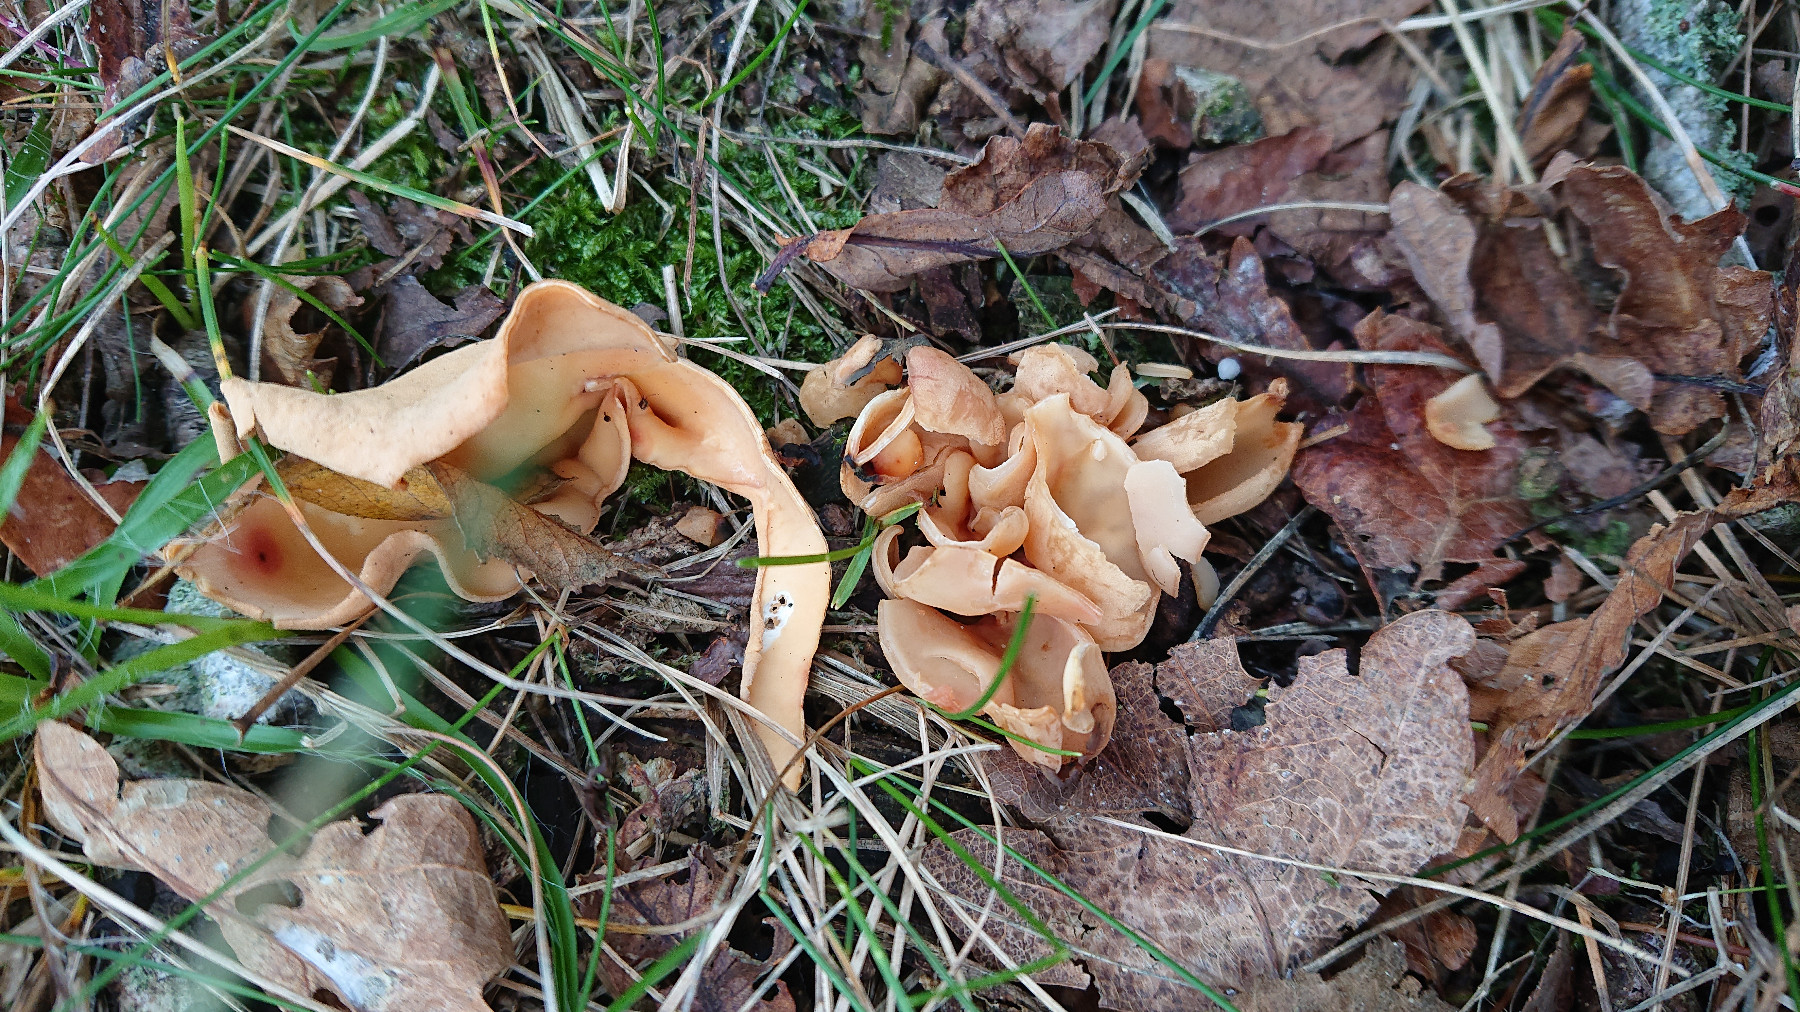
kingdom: Fungi
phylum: Ascomycota
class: Pezizomycetes
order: Pezizales
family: Otideaceae
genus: Otidea
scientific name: Otidea onotica
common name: æsel-ørebæger
